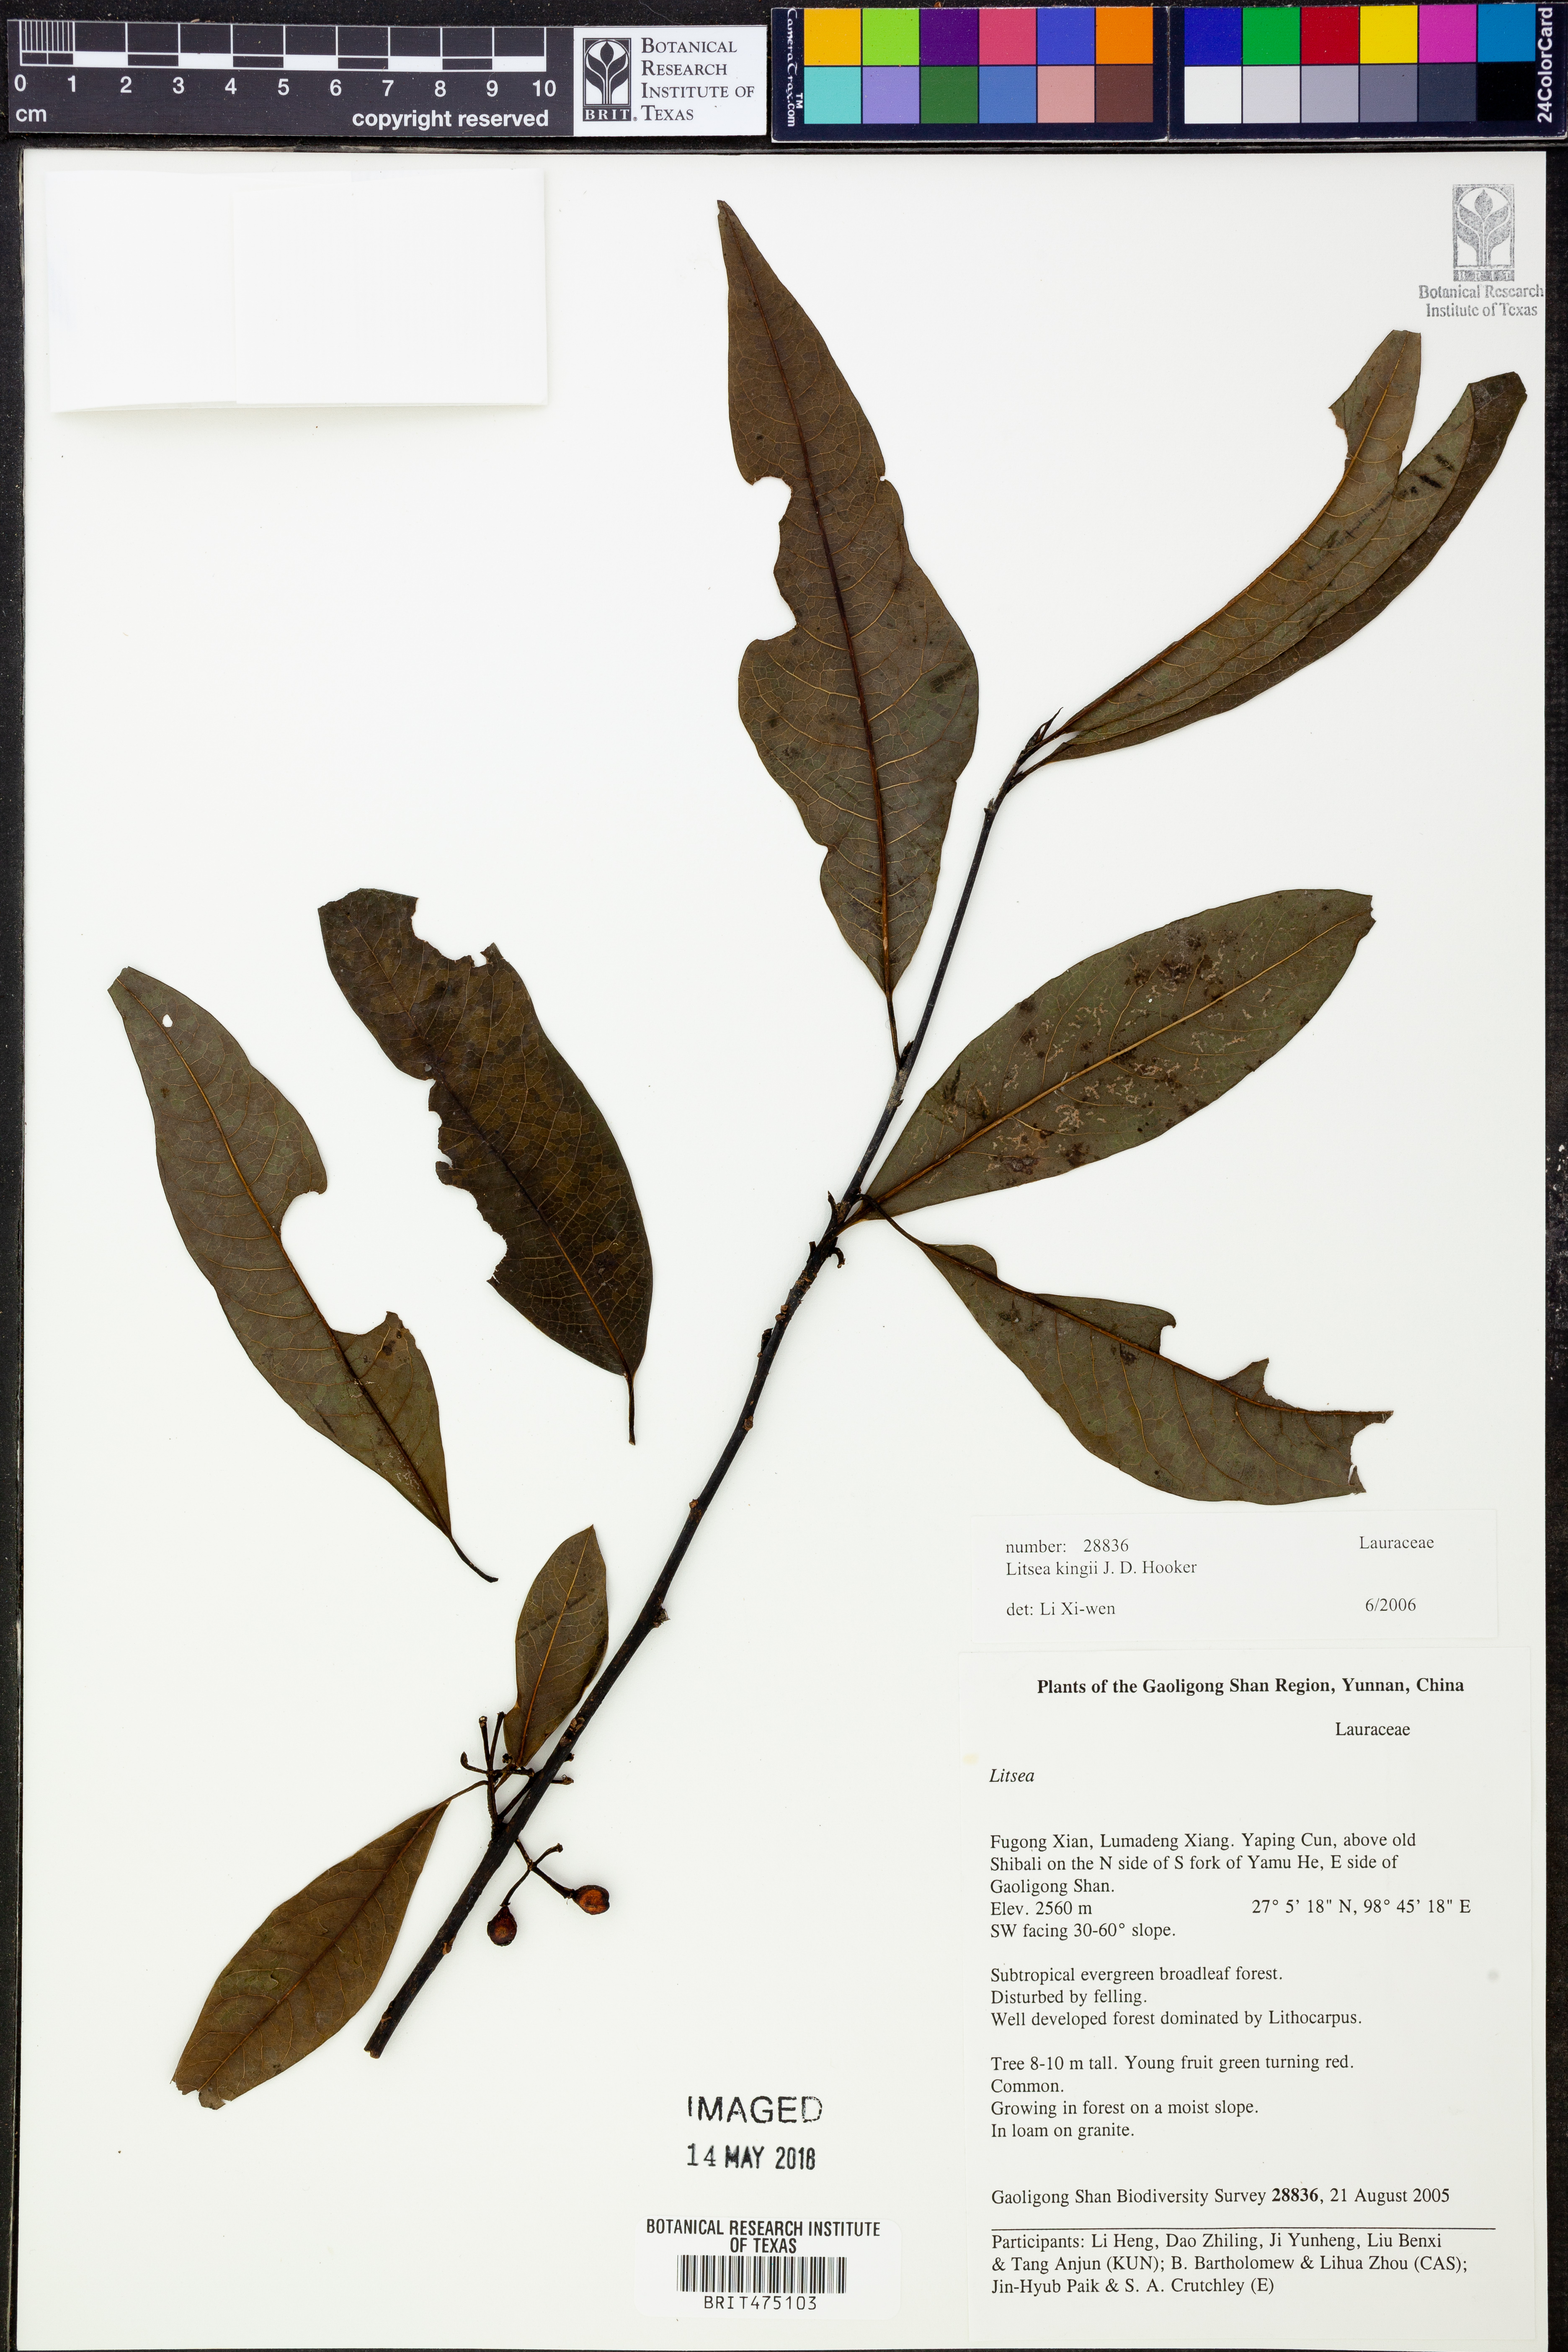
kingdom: Plantae
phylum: Tracheophyta
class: Magnoliopsida
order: Laurales
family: Lauraceae
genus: Litsea
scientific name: Litsea kingii
